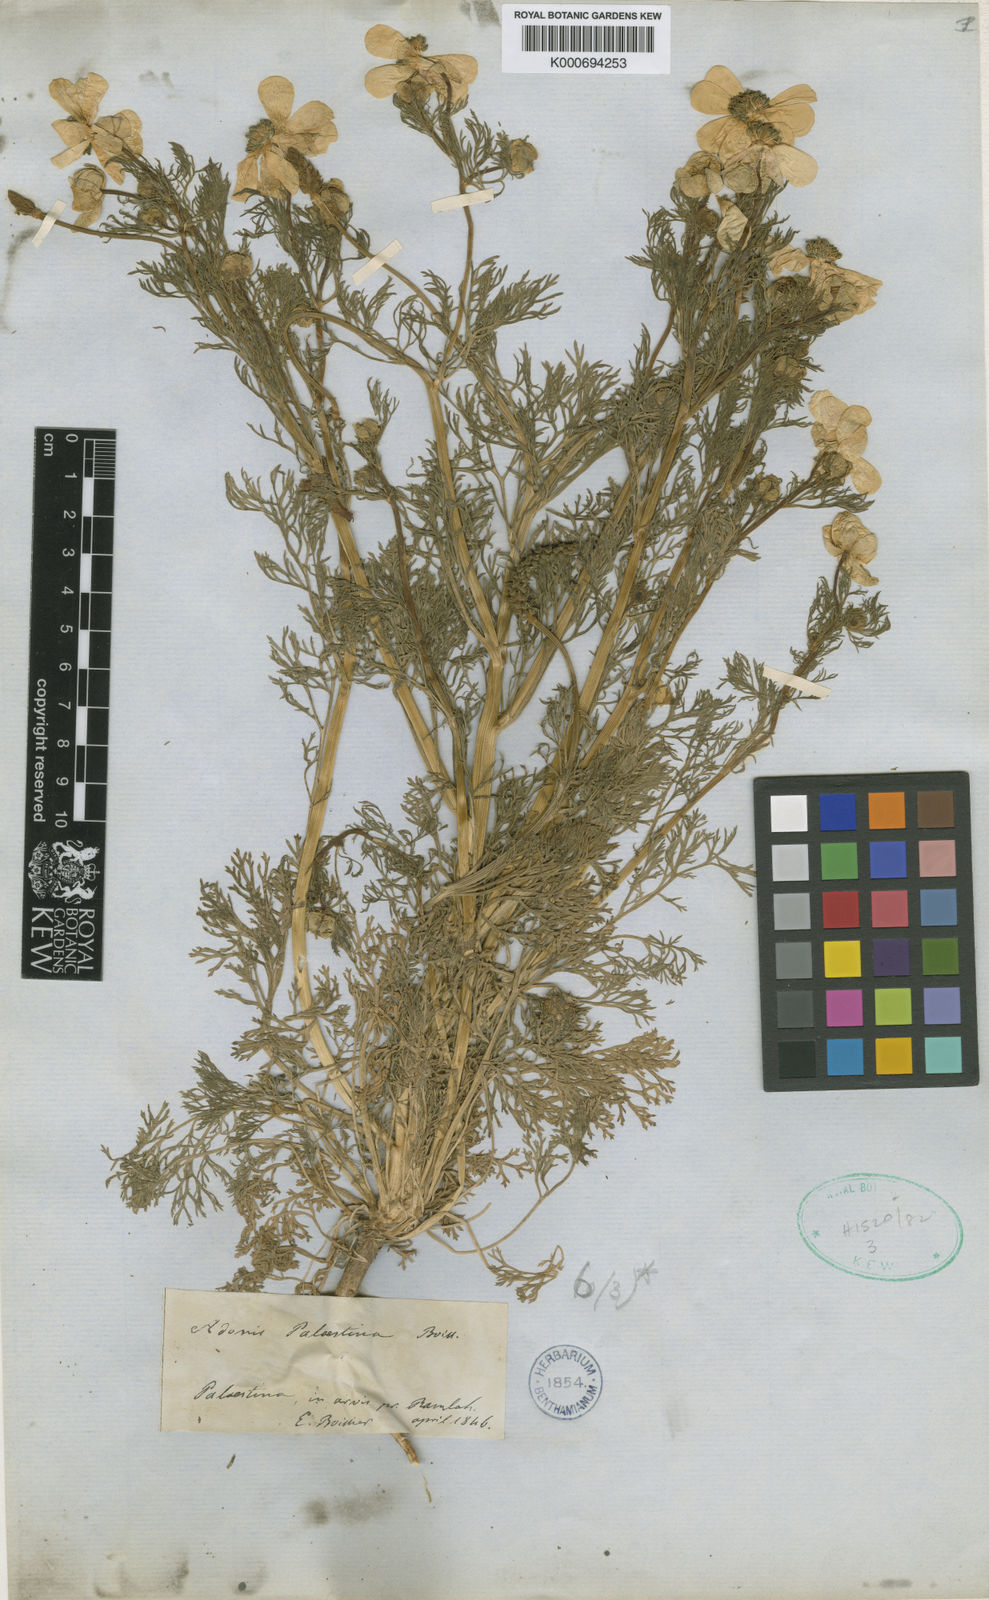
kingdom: Plantae
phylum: Tracheophyta
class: Magnoliopsida
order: Ranunculales
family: Ranunculaceae
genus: Adonis
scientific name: Adonis palaestina
